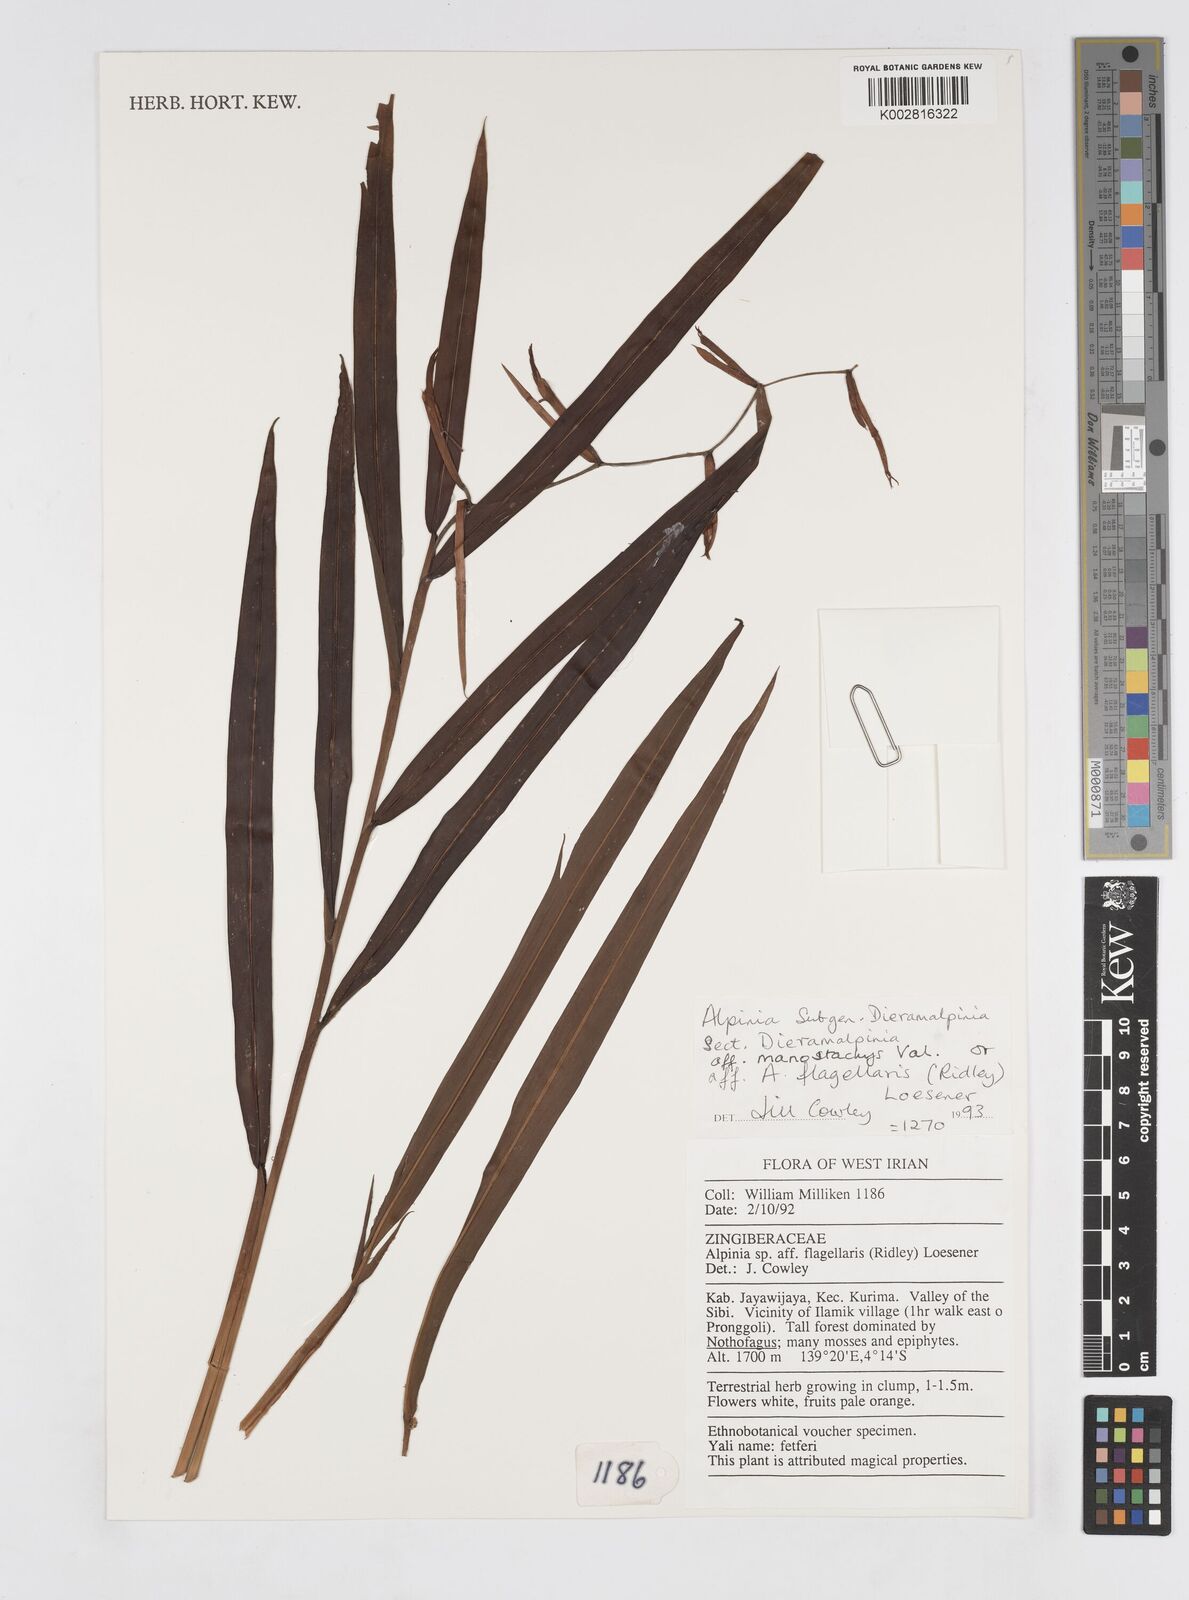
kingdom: Plantae
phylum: Tracheophyta
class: Liliopsida
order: Zingiberales
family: Zingiberaceae
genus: Alpinia
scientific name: Alpinia manostachys
